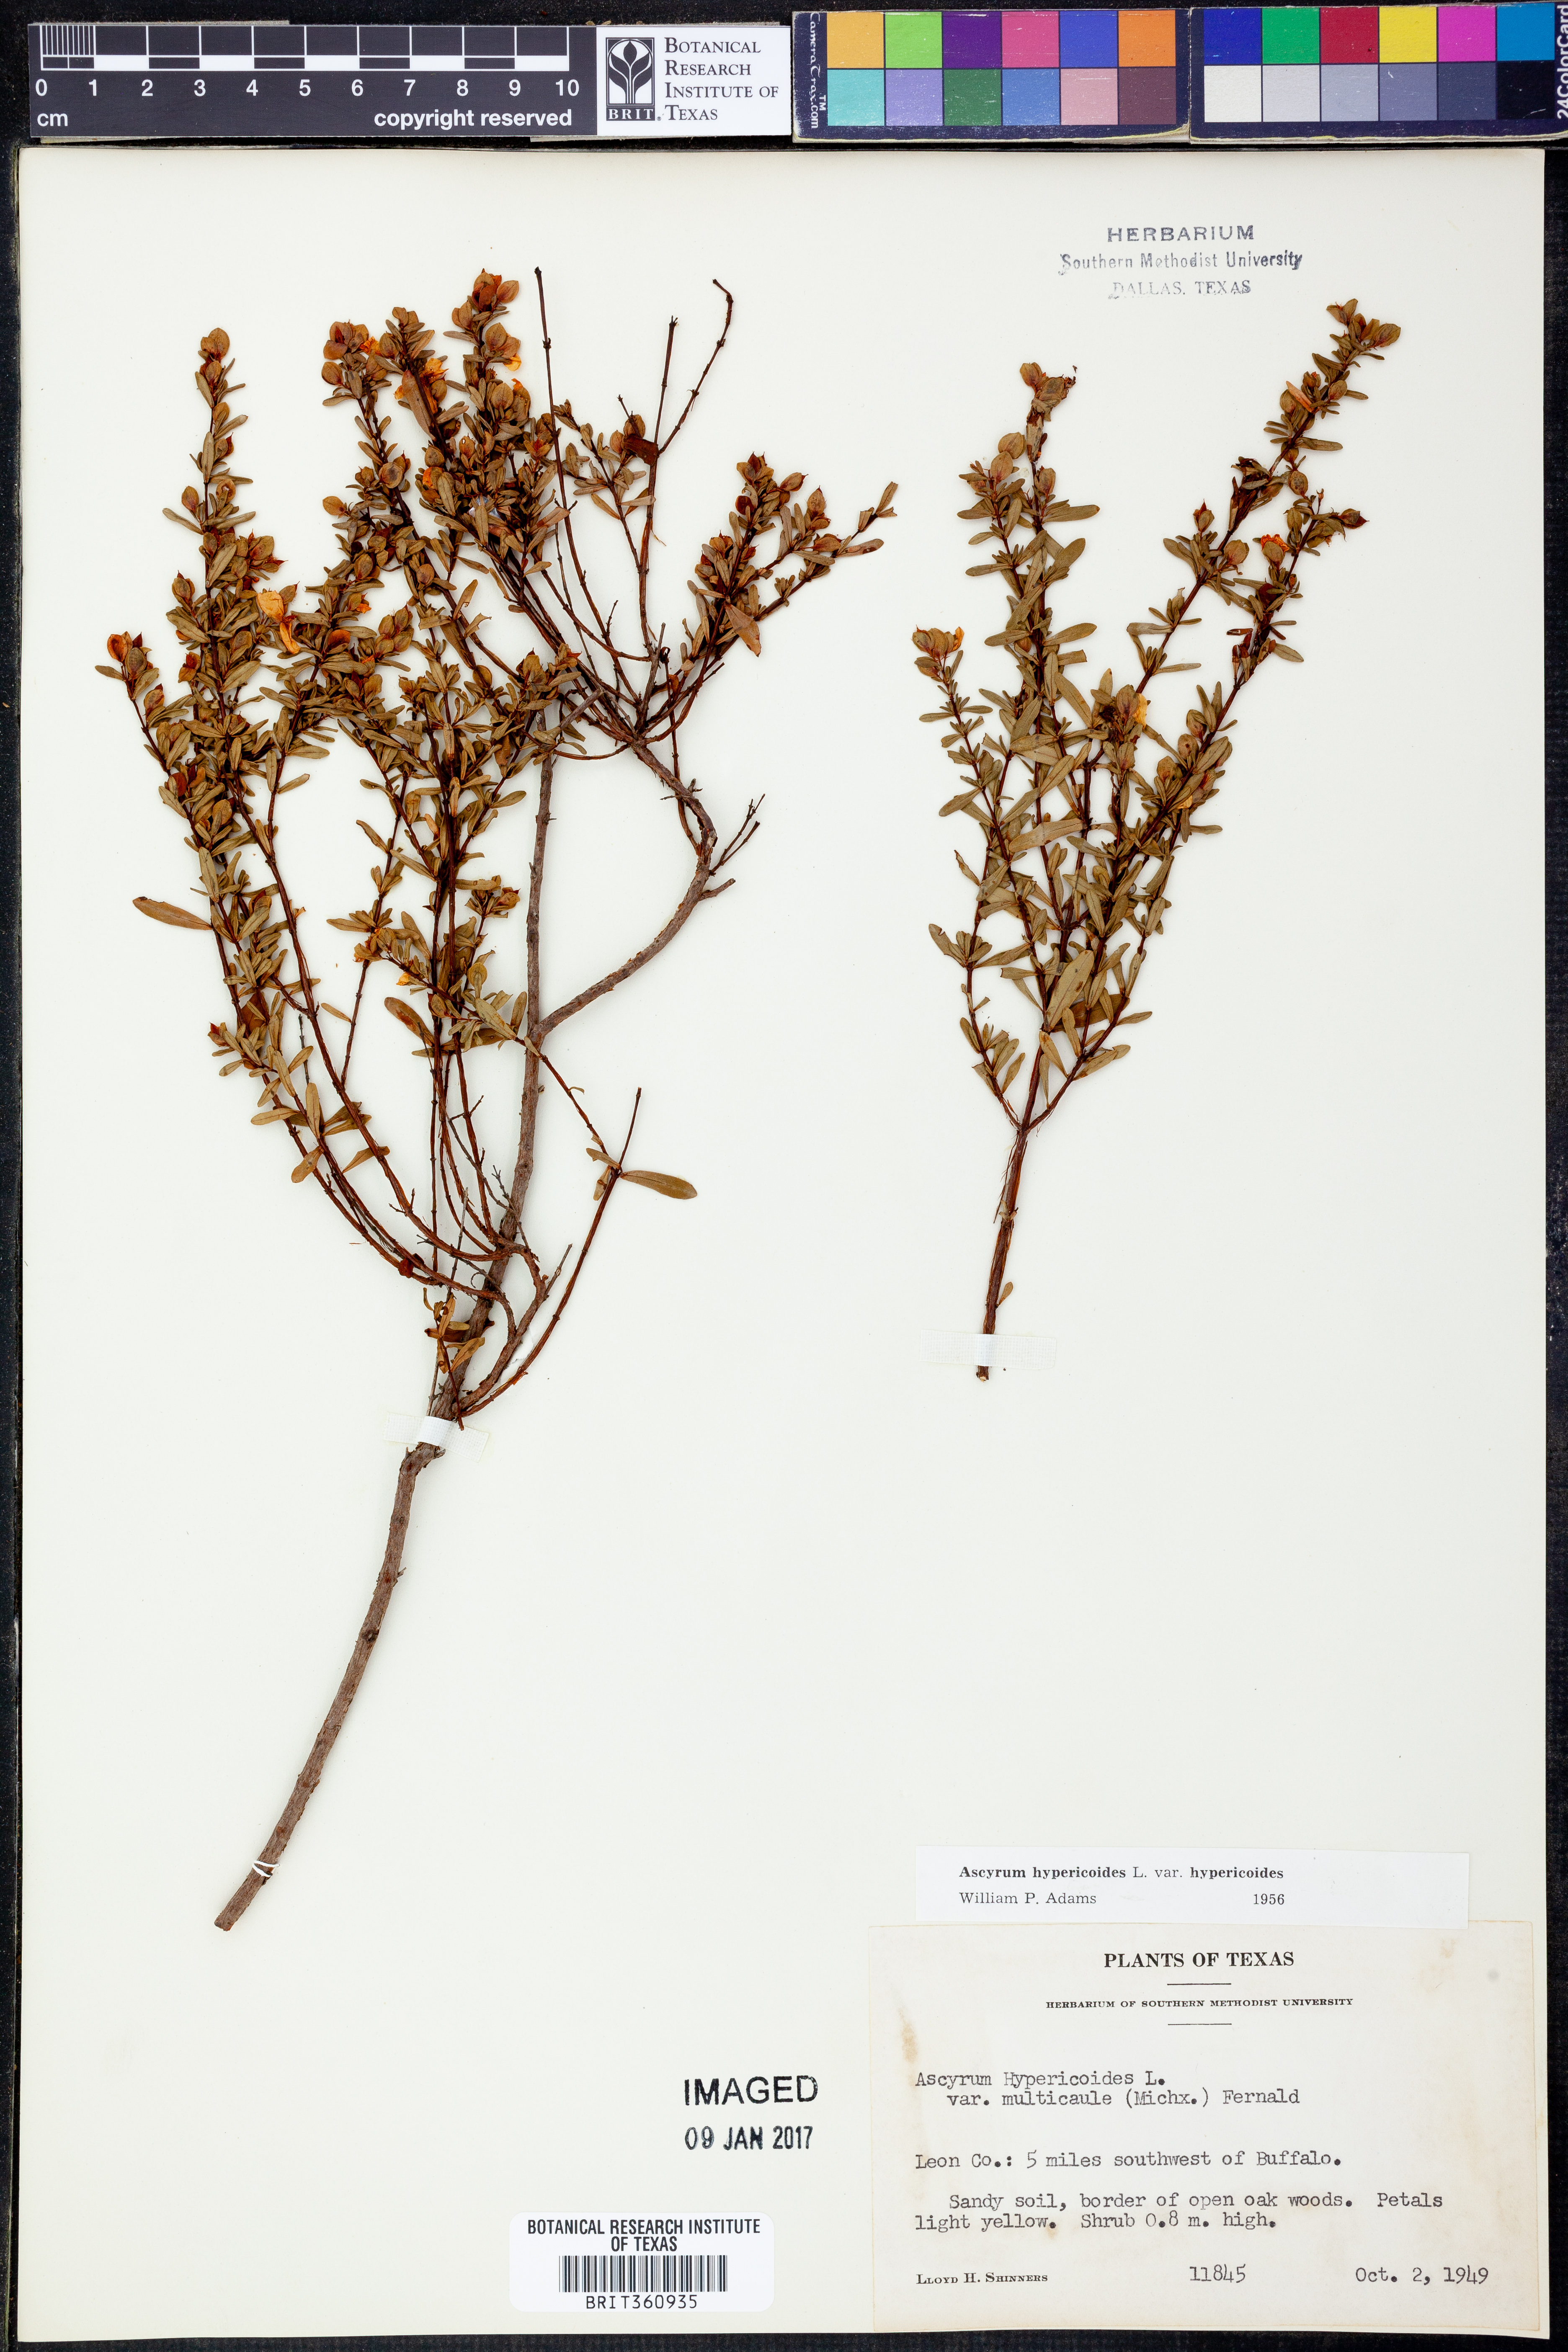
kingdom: Plantae
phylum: Tracheophyta
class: Magnoliopsida
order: Malpighiales
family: Hypericaceae
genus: Hypericum
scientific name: Hypericum hypericoides
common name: St. andrew's cross
